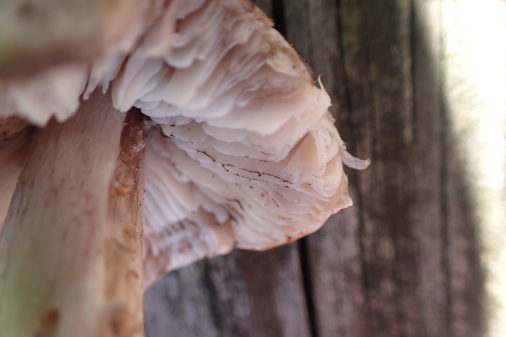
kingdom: Fungi
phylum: Basidiomycota
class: Agaricomycetes
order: Agaricales
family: Tricholomataceae
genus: Tricholoma
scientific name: Tricholoma sciodes
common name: stribet ridderhat
